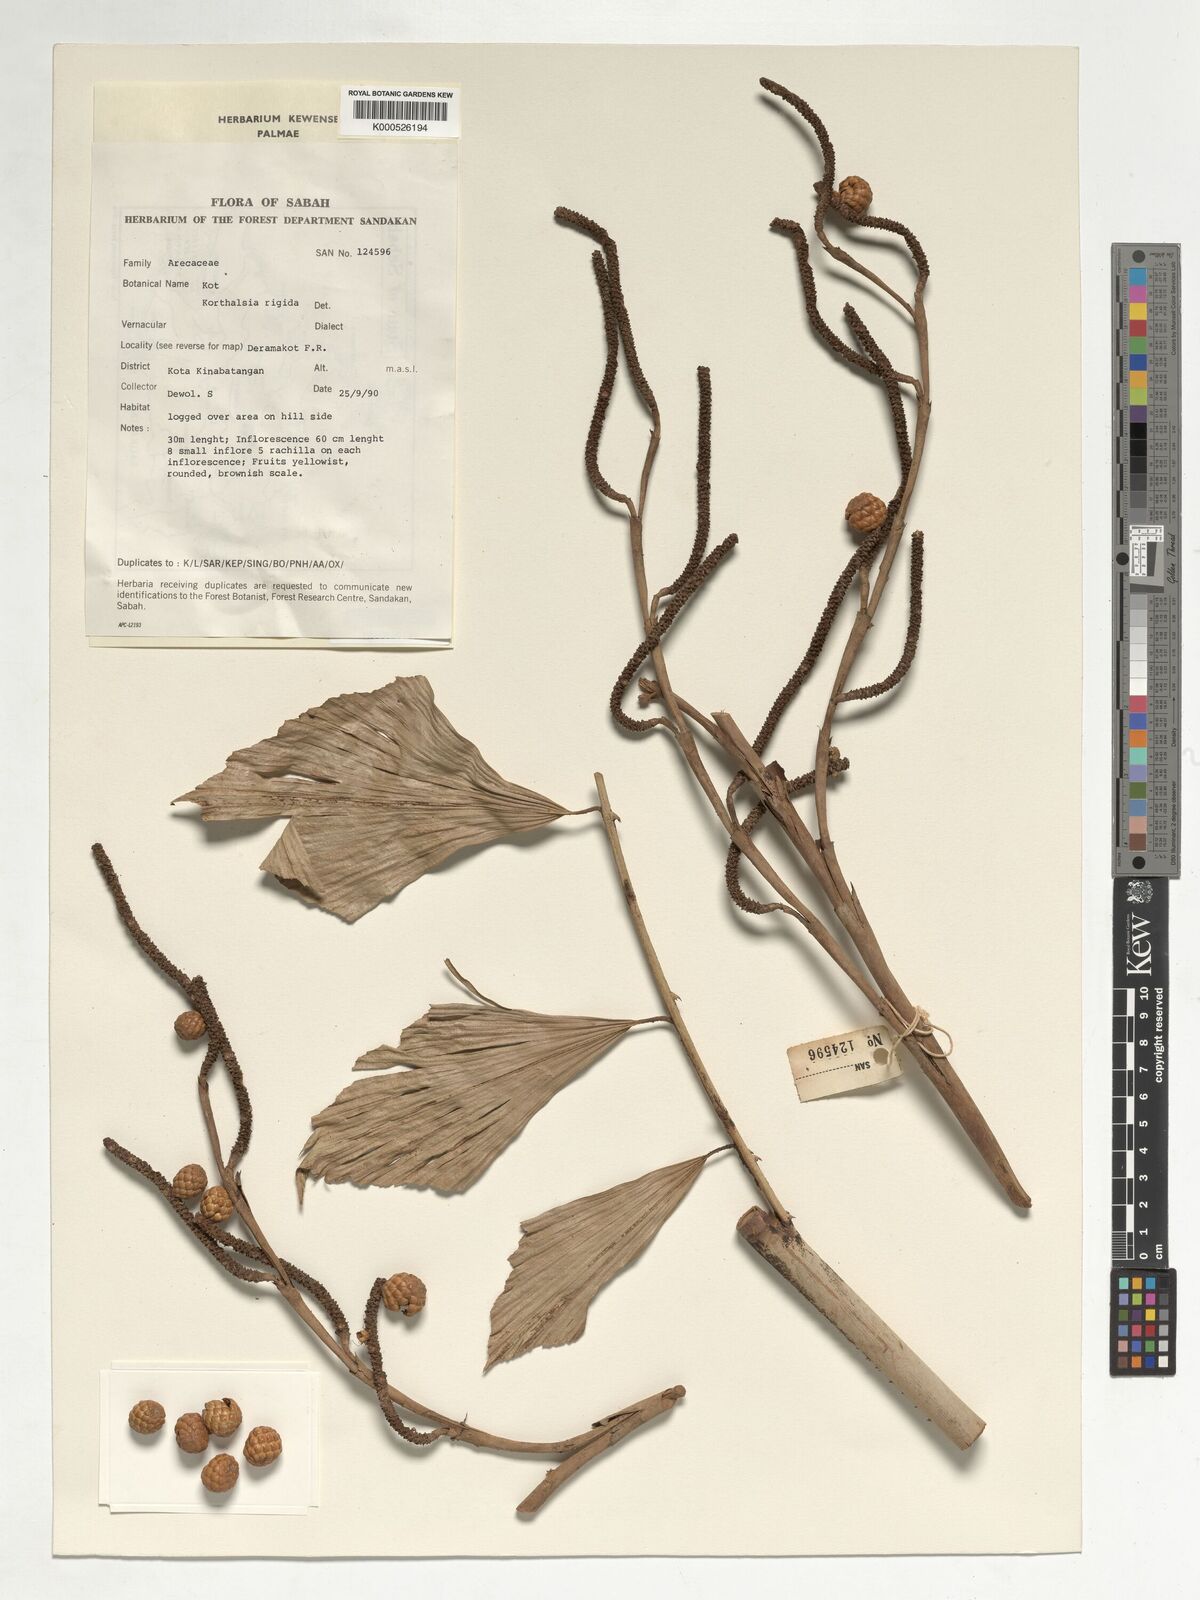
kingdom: Plantae
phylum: Tracheophyta
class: Liliopsida
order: Arecales
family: Arecaceae
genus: Korthalsia
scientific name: Korthalsia rigida
